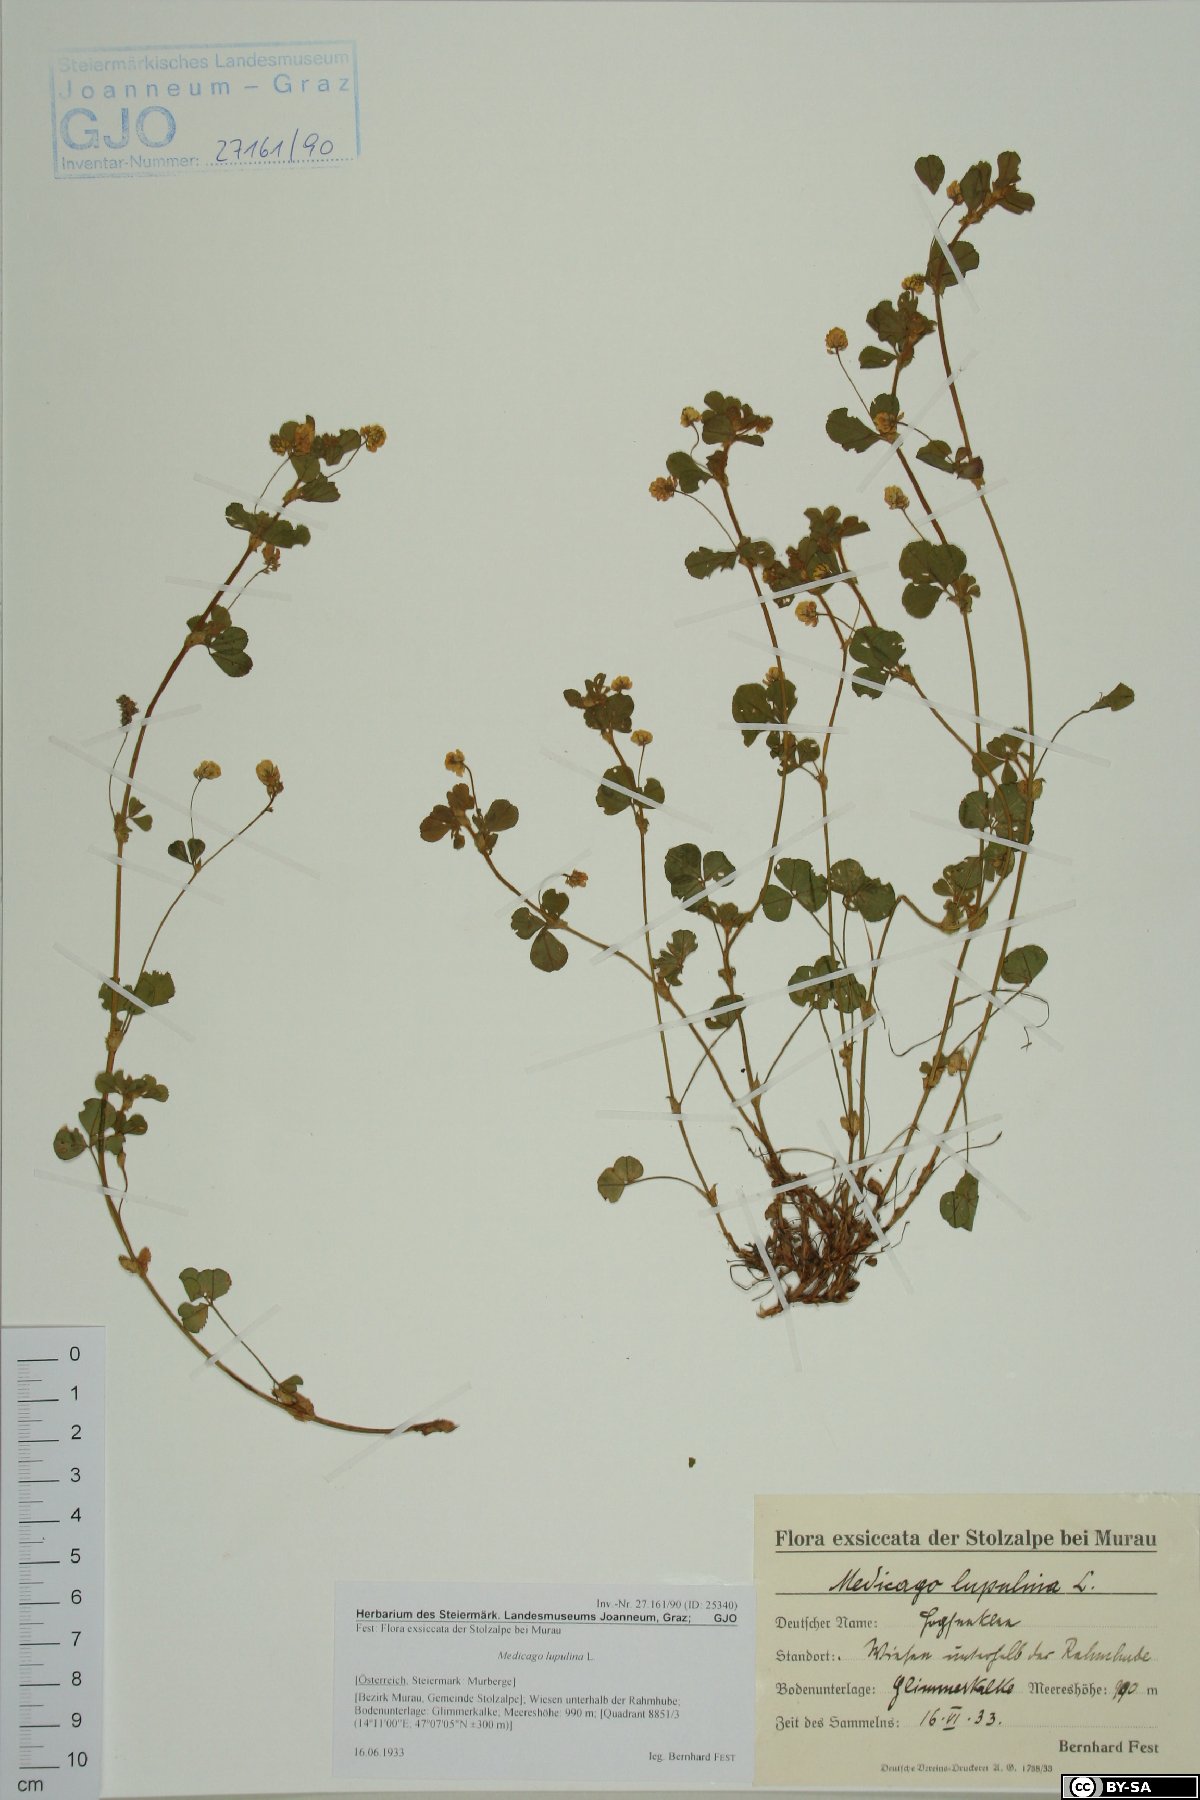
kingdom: Plantae
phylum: Tracheophyta
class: Magnoliopsida
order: Fabales
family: Fabaceae
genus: Medicago
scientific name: Medicago lupulina
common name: Black medick
